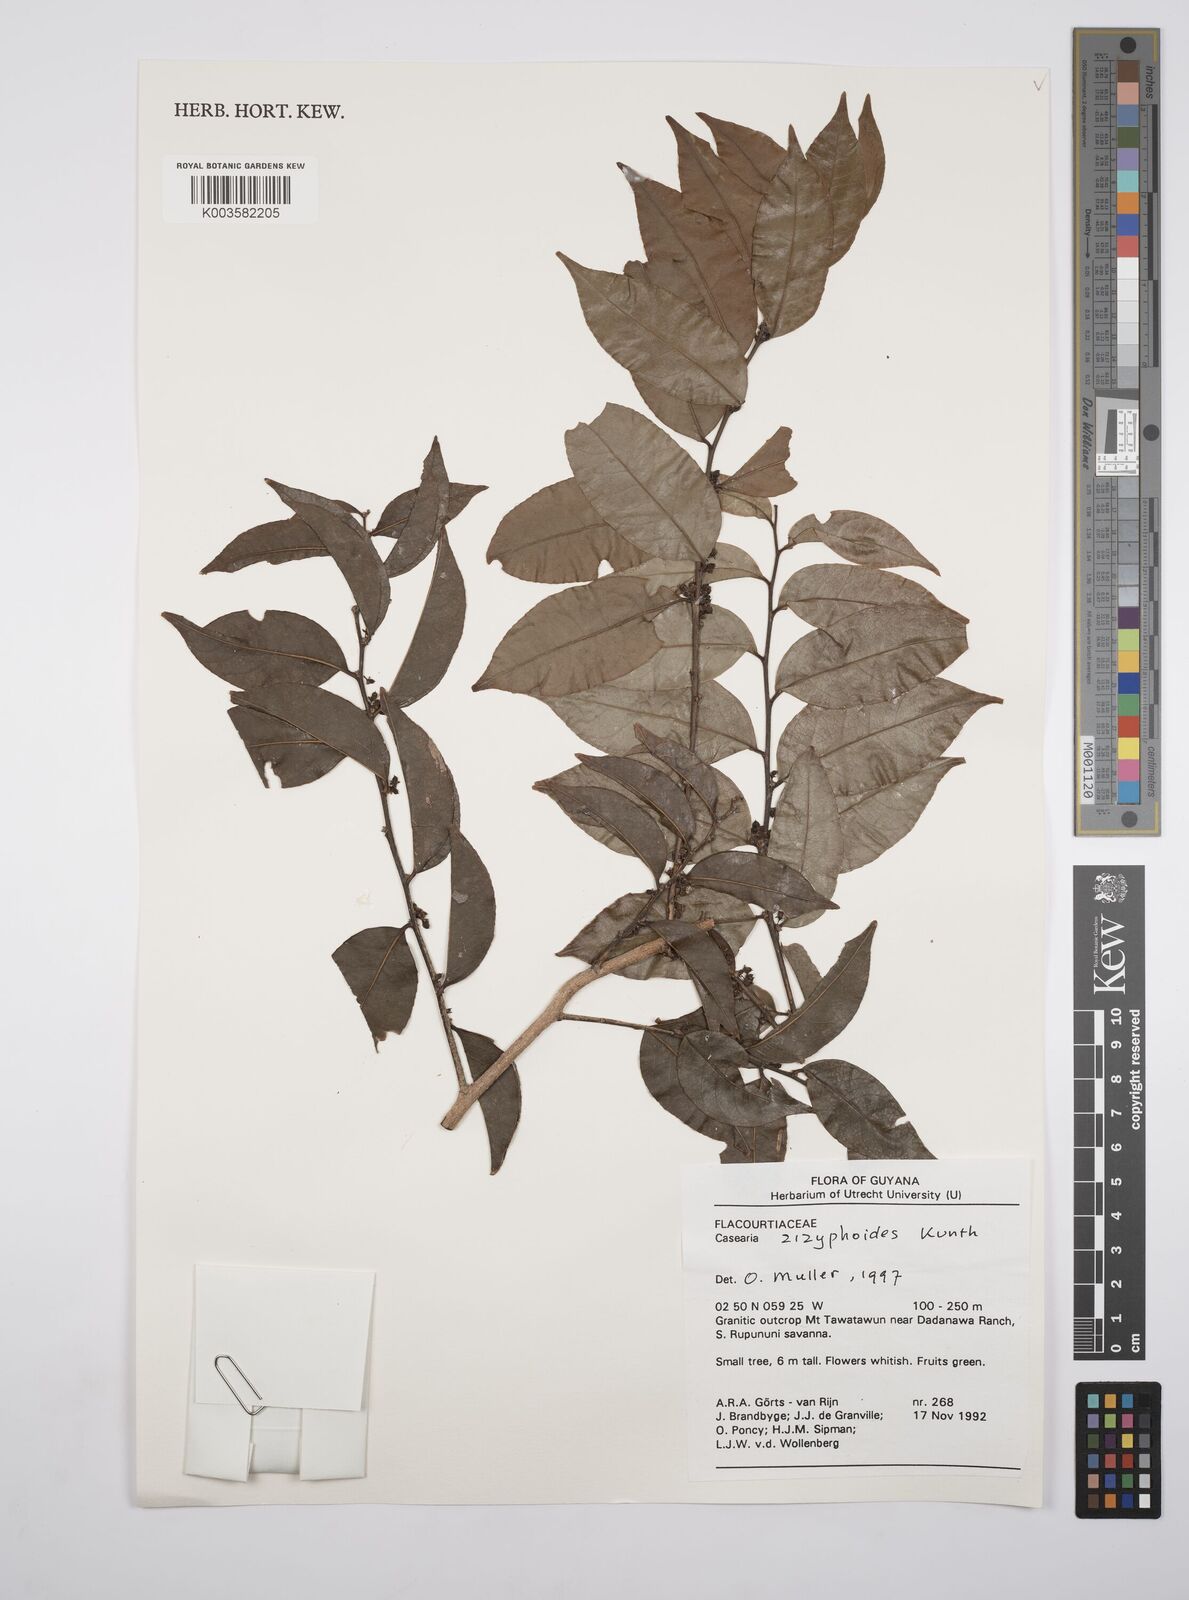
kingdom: Plantae
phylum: Tracheophyta
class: Magnoliopsida
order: Malpighiales
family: Salicaceae
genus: Casearia
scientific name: Casearia zizyphoides
